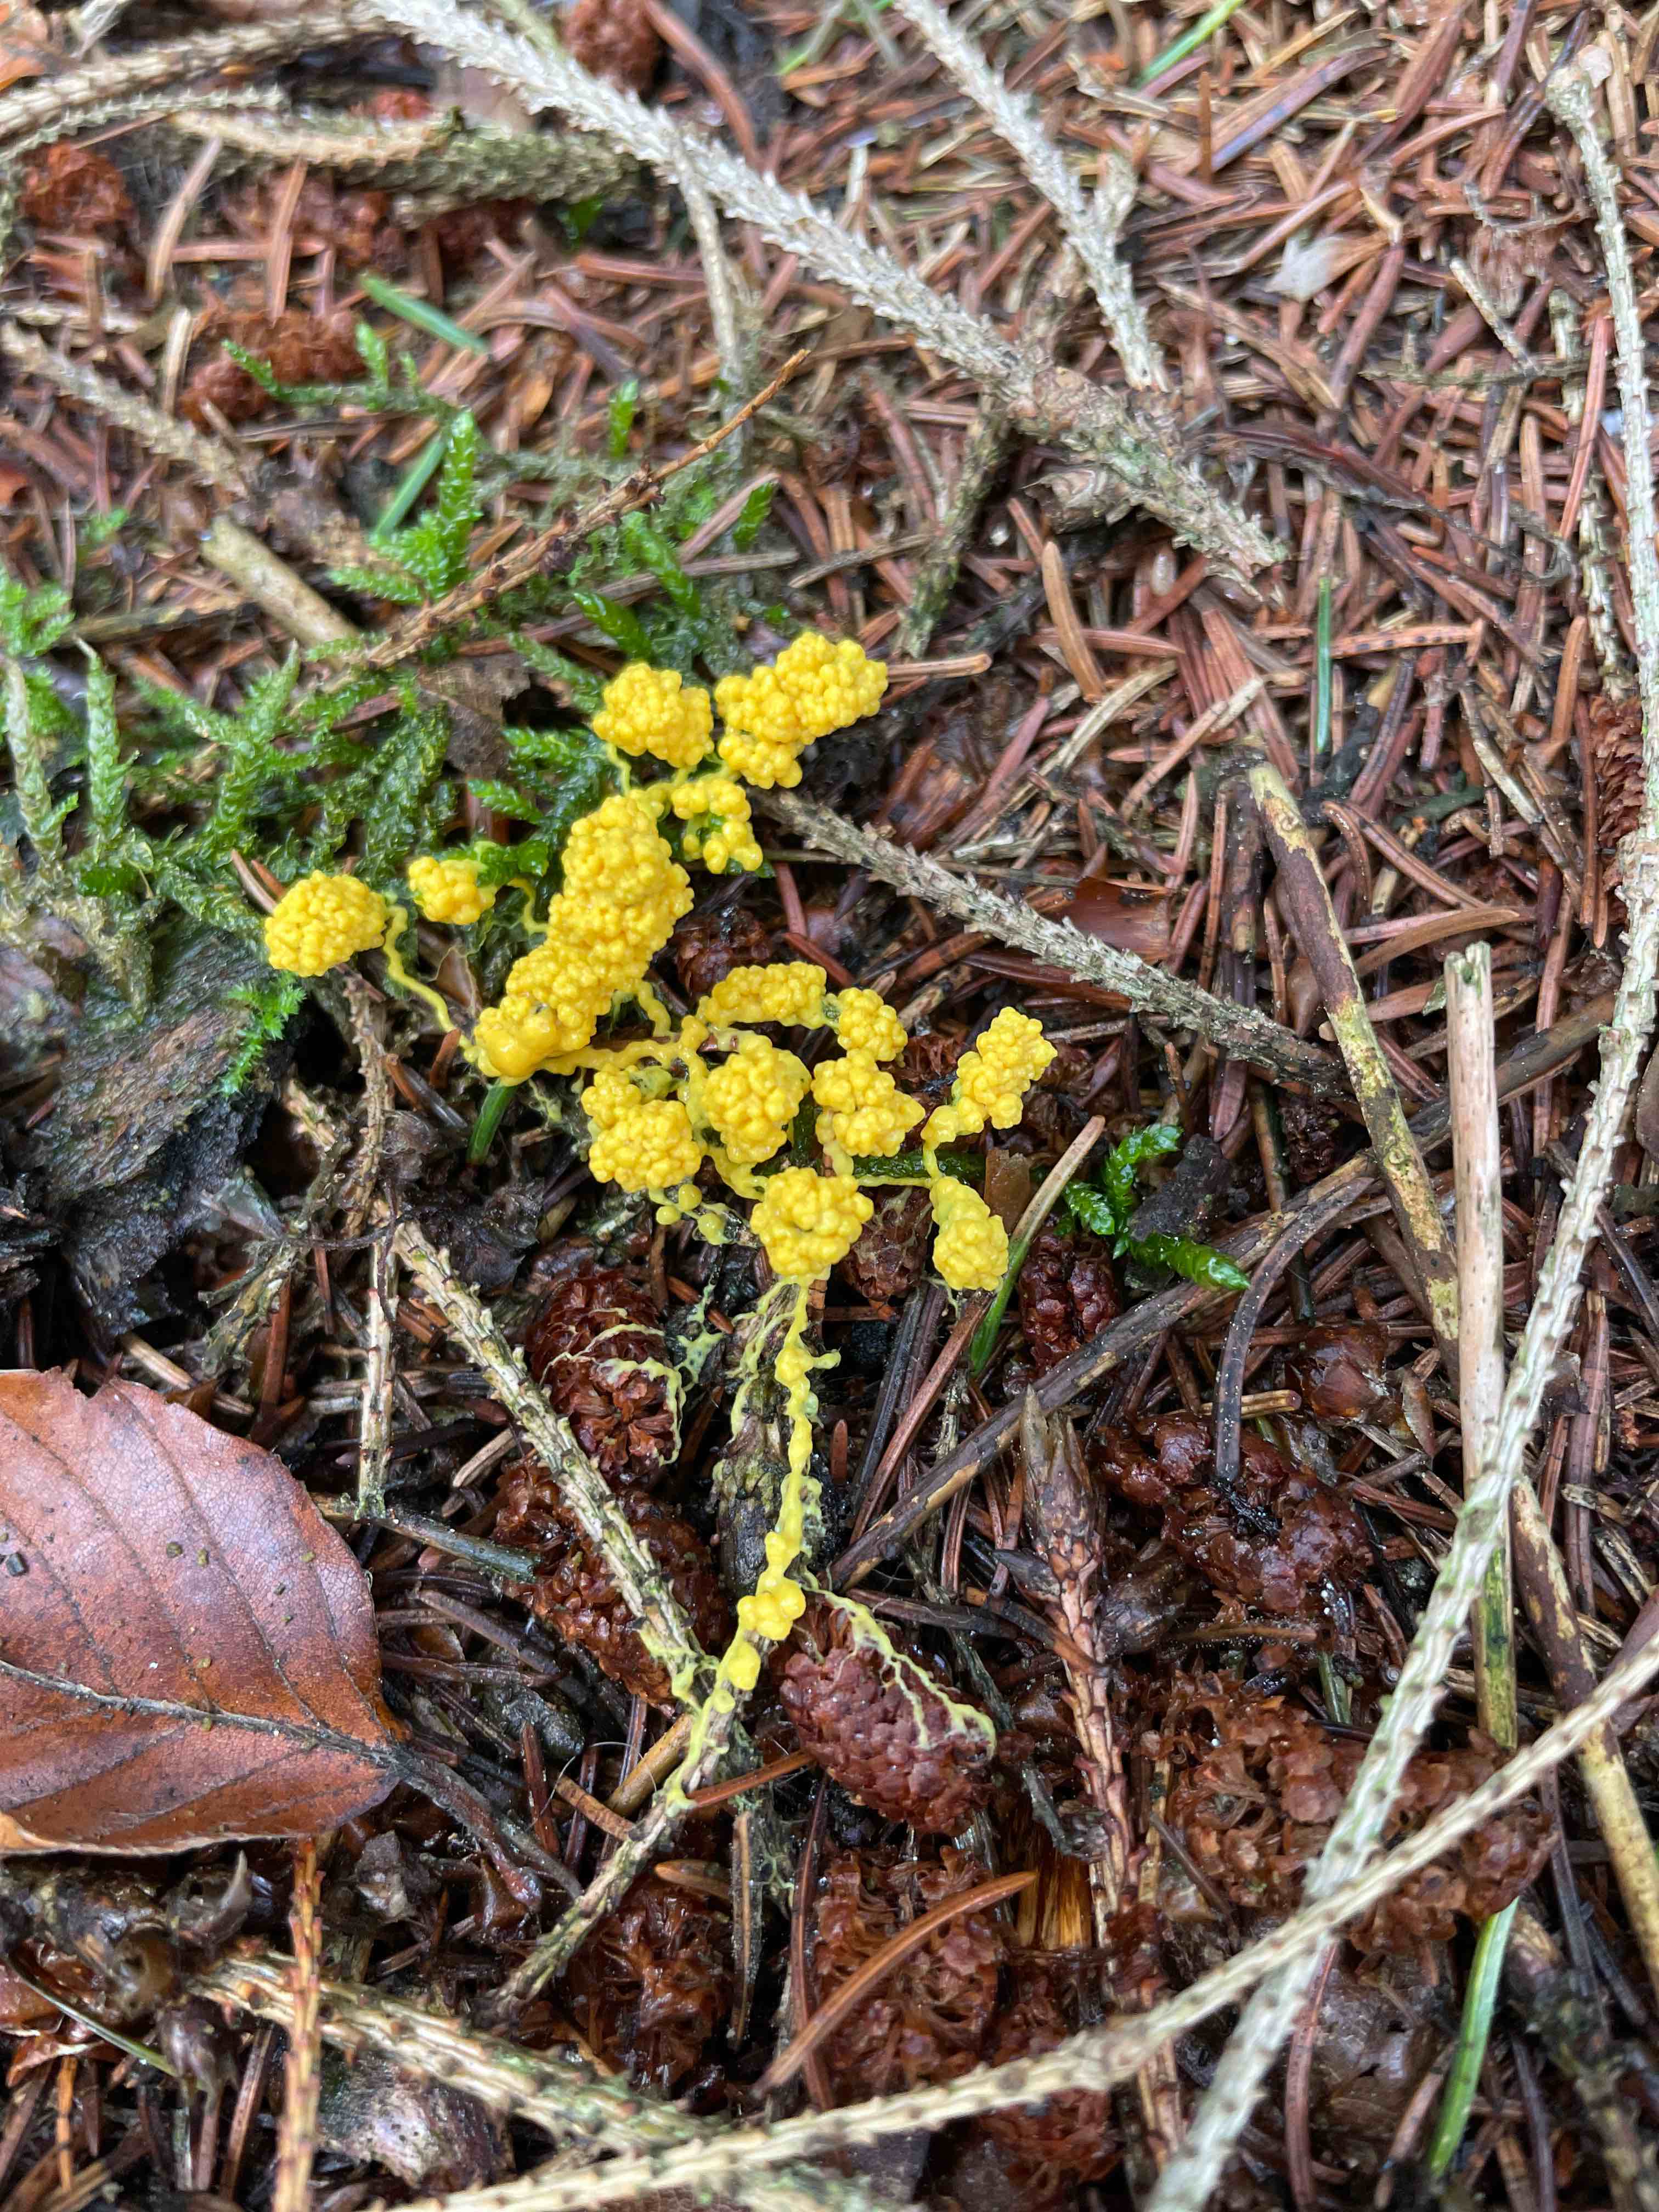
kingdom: Protozoa
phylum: Mycetozoa
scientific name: Mycetozoa
